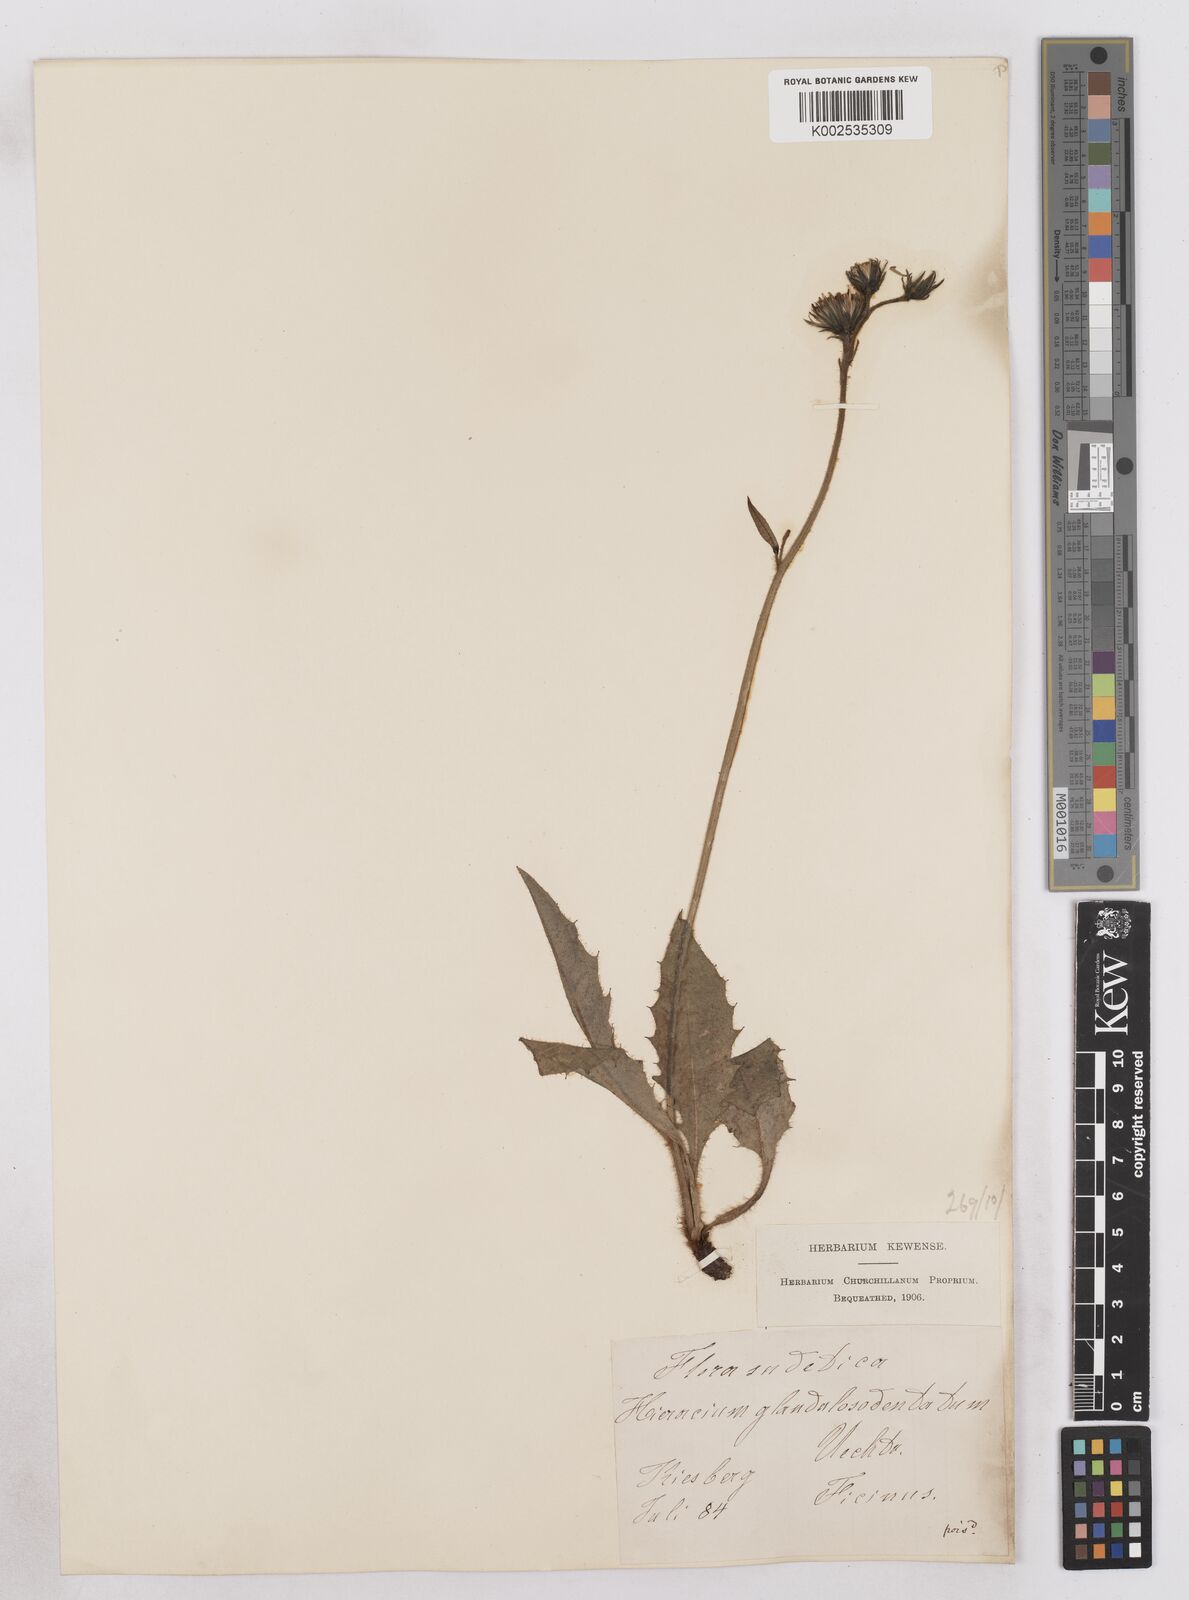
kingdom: Plantae
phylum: Tracheophyta
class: Magnoliopsida
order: Asterales
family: Asteraceae
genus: Hieracium
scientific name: Hieracium bocconei
